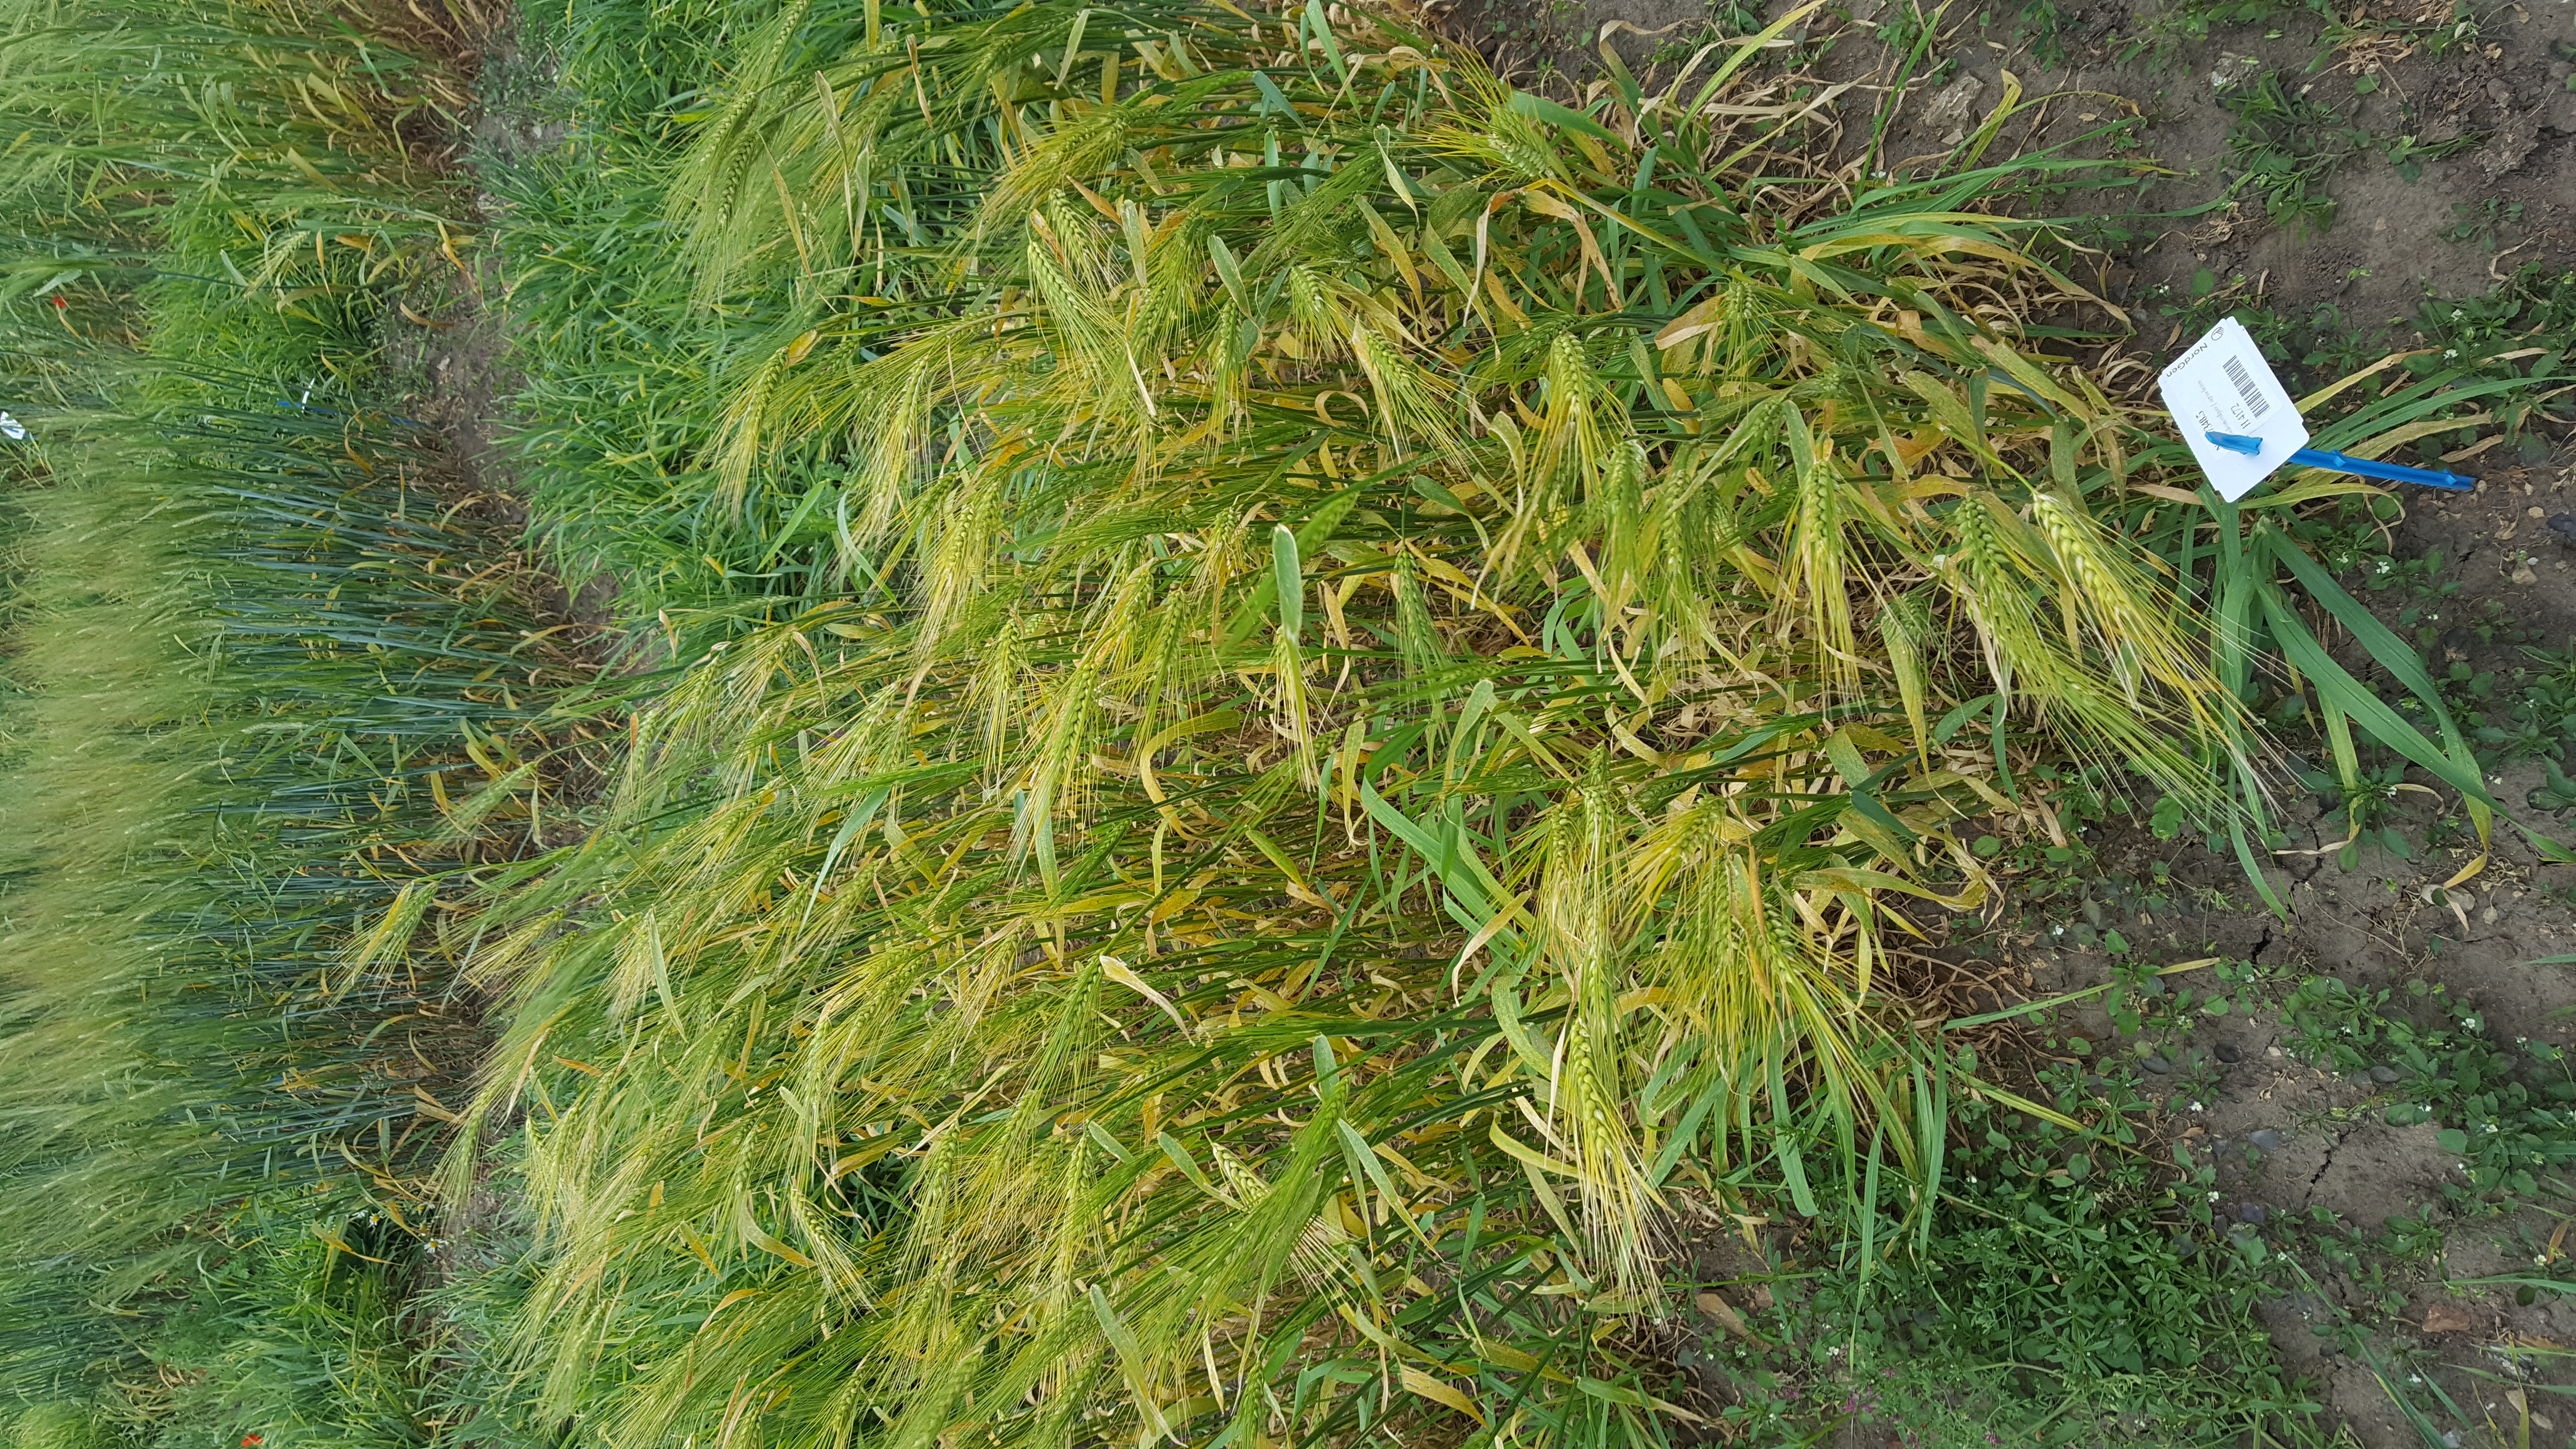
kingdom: Plantae
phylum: Tracheophyta
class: Liliopsida
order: Poales
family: Poaceae
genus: Hordeum
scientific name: Hordeum vulgare
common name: Common barley
